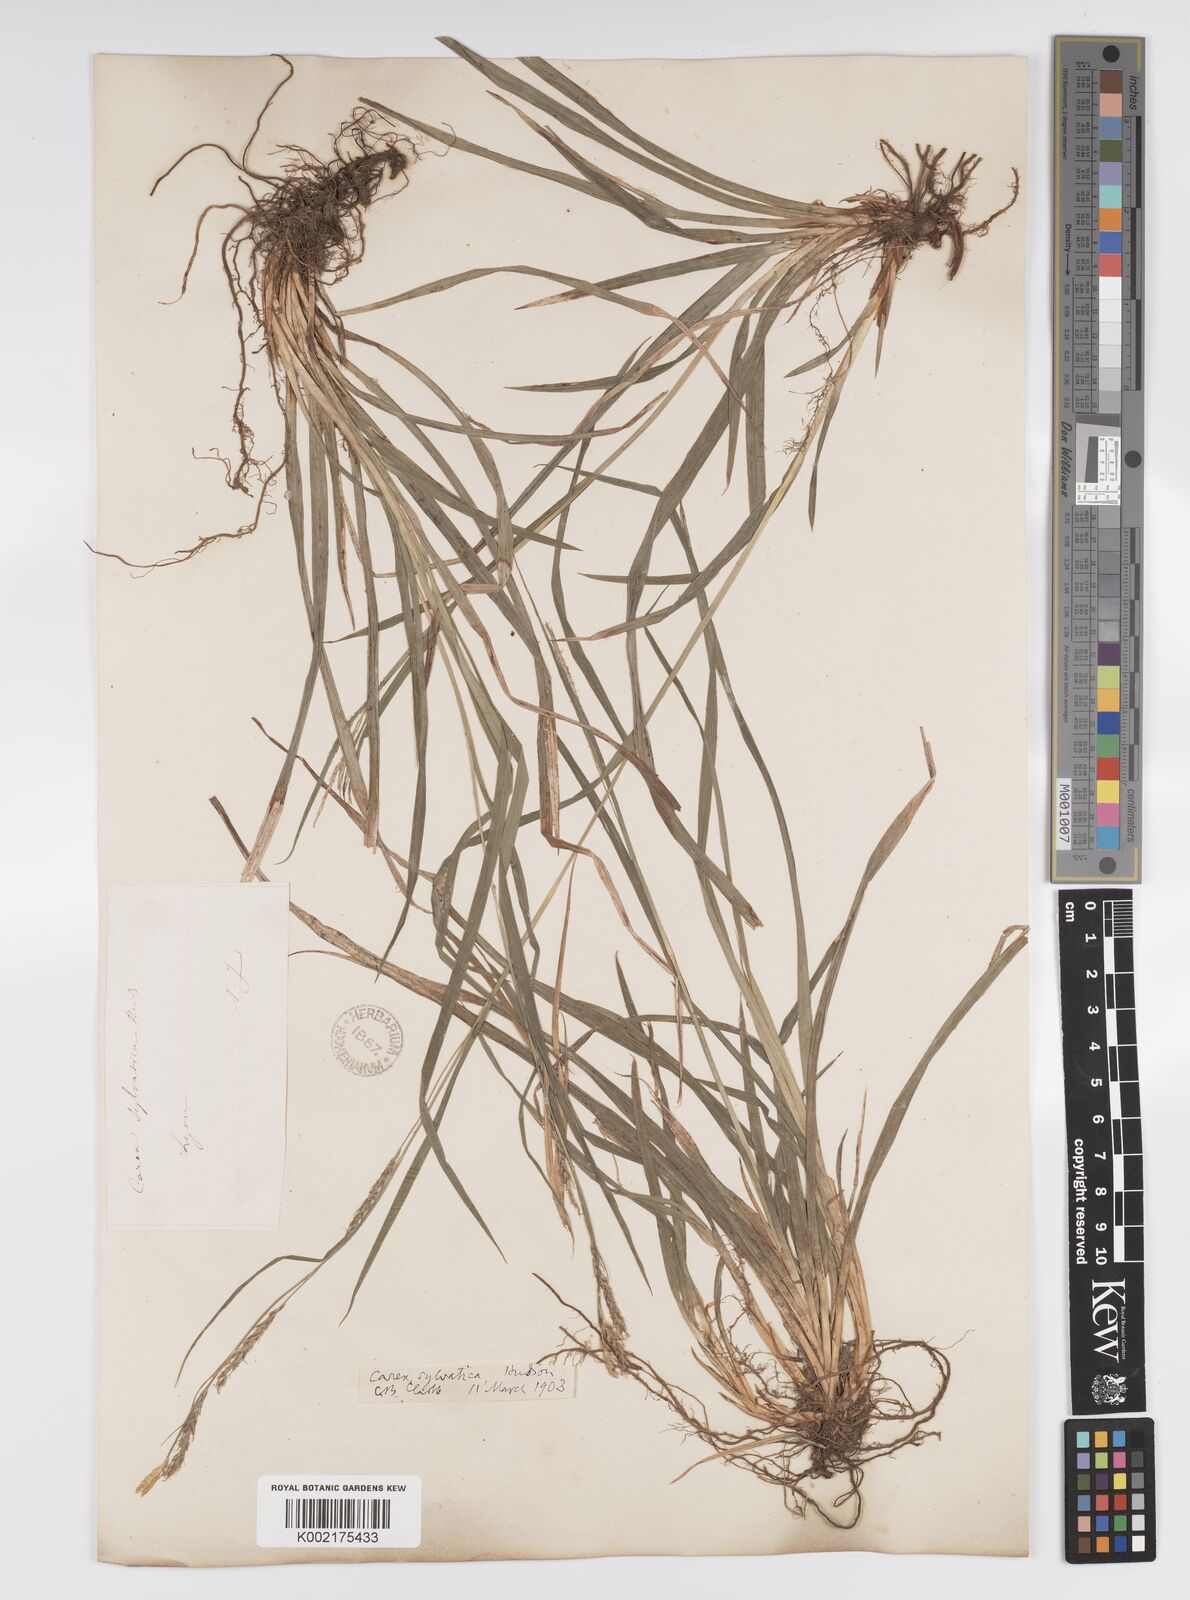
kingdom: Plantae
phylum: Tracheophyta
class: Liliopsida
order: Poales
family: Cyperaceae
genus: Carex
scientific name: Carex sylvatica
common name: Wood-sedge
